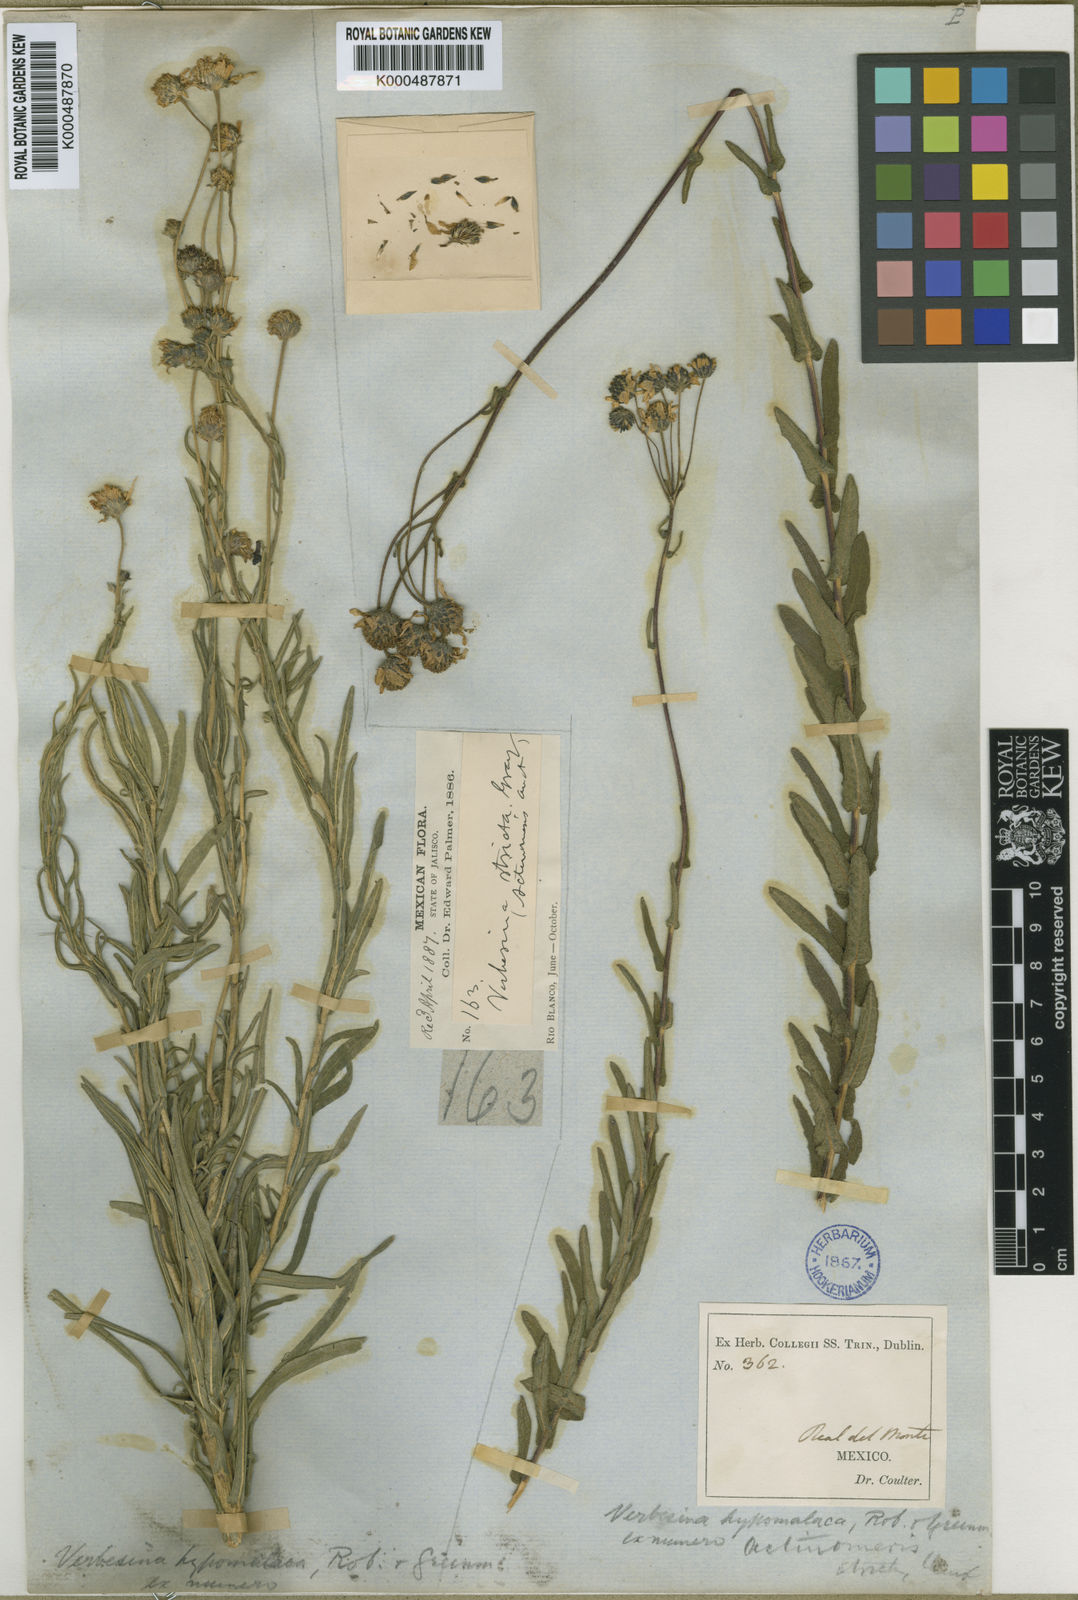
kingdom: Plantae
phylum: Tracheophyta
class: Magnoliopsida
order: Asterales
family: Asteraceae
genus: Verbesina
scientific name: Verbesina hypomalaca
